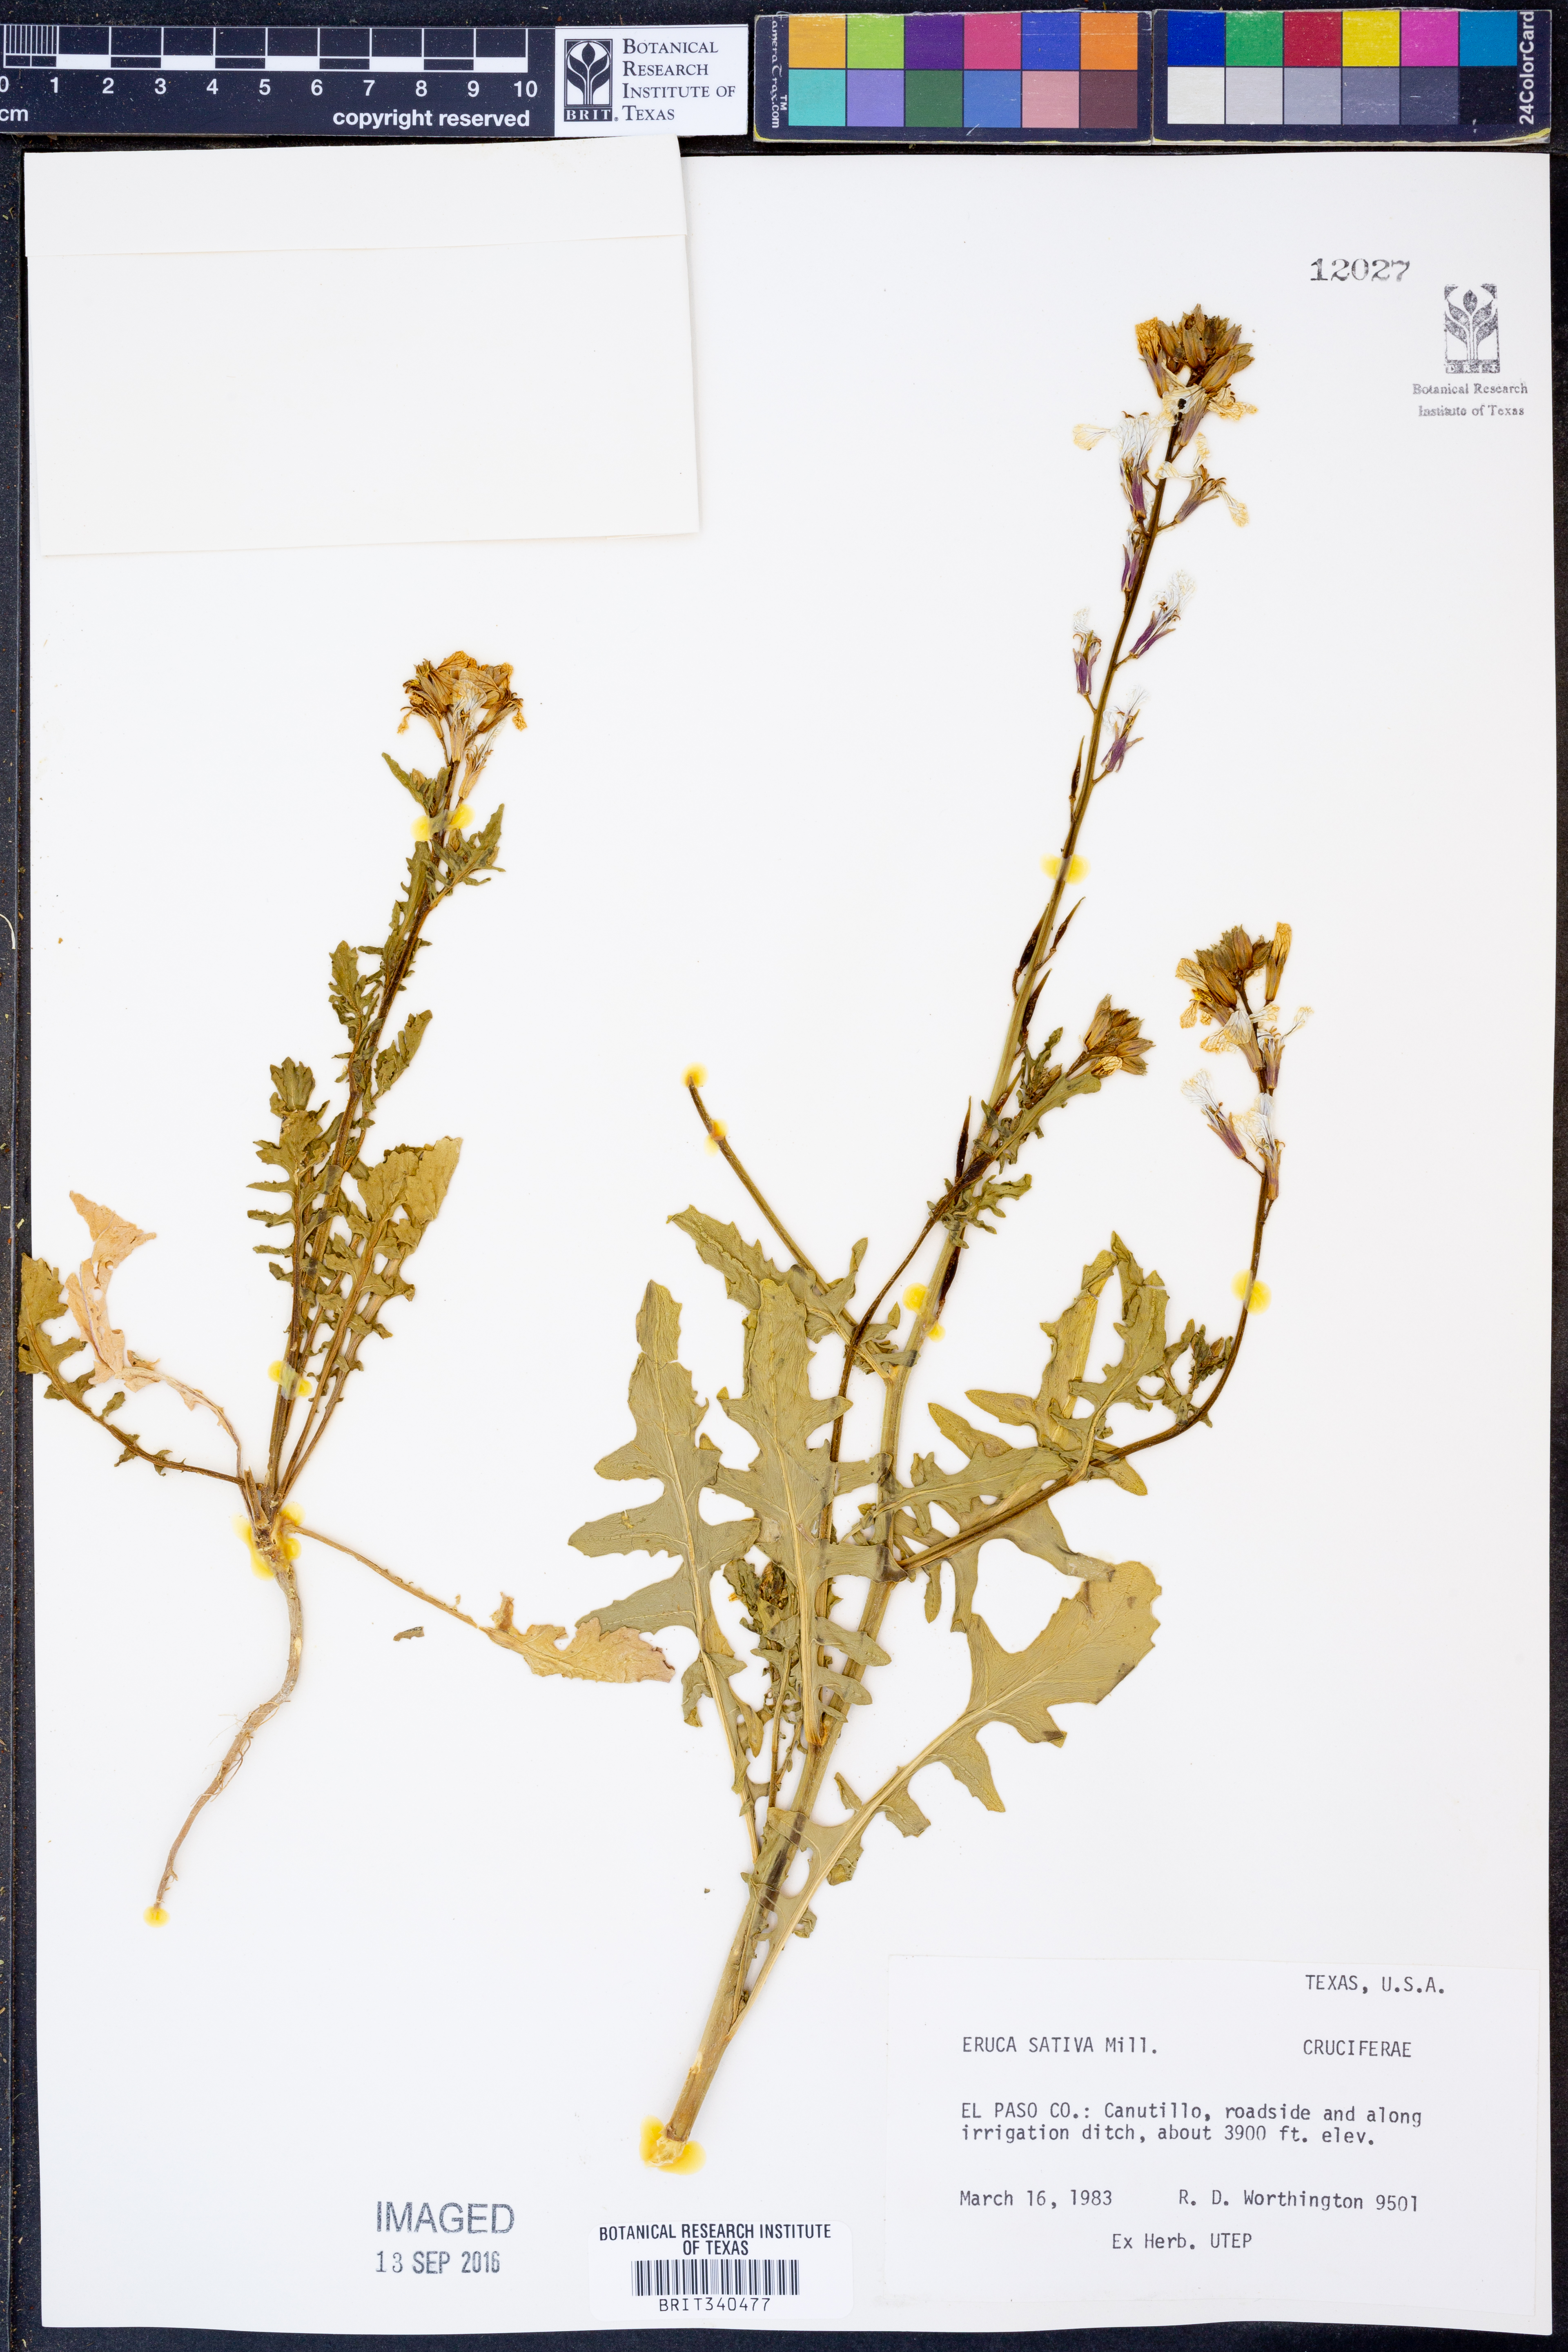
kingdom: Plantae
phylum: Tracheophyta
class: Magnoliopsida
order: Brassicales
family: Brassicaceae
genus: Eruca
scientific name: Eruca vesicaria
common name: Garden rocket
